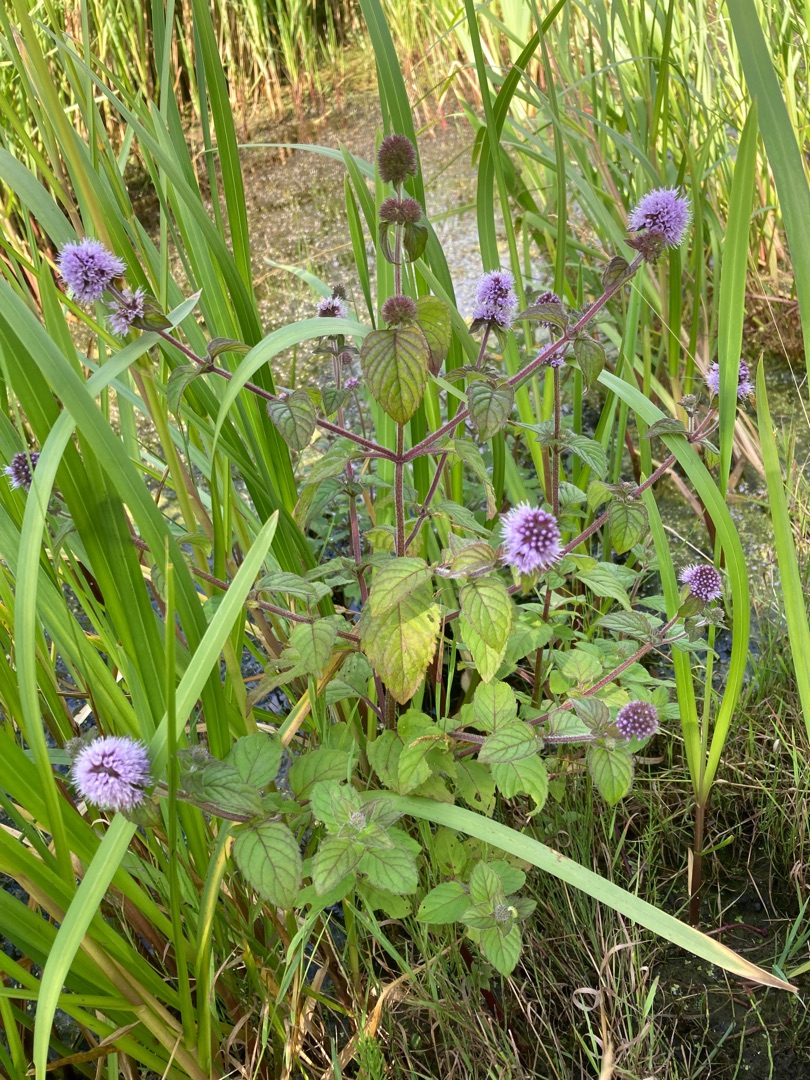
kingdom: Plantae
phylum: Tracheophyta
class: Magnoliopsida
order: Lamiales
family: Lamiaceae
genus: Mentha
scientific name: Mentha aquatica
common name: Vand-mynte
